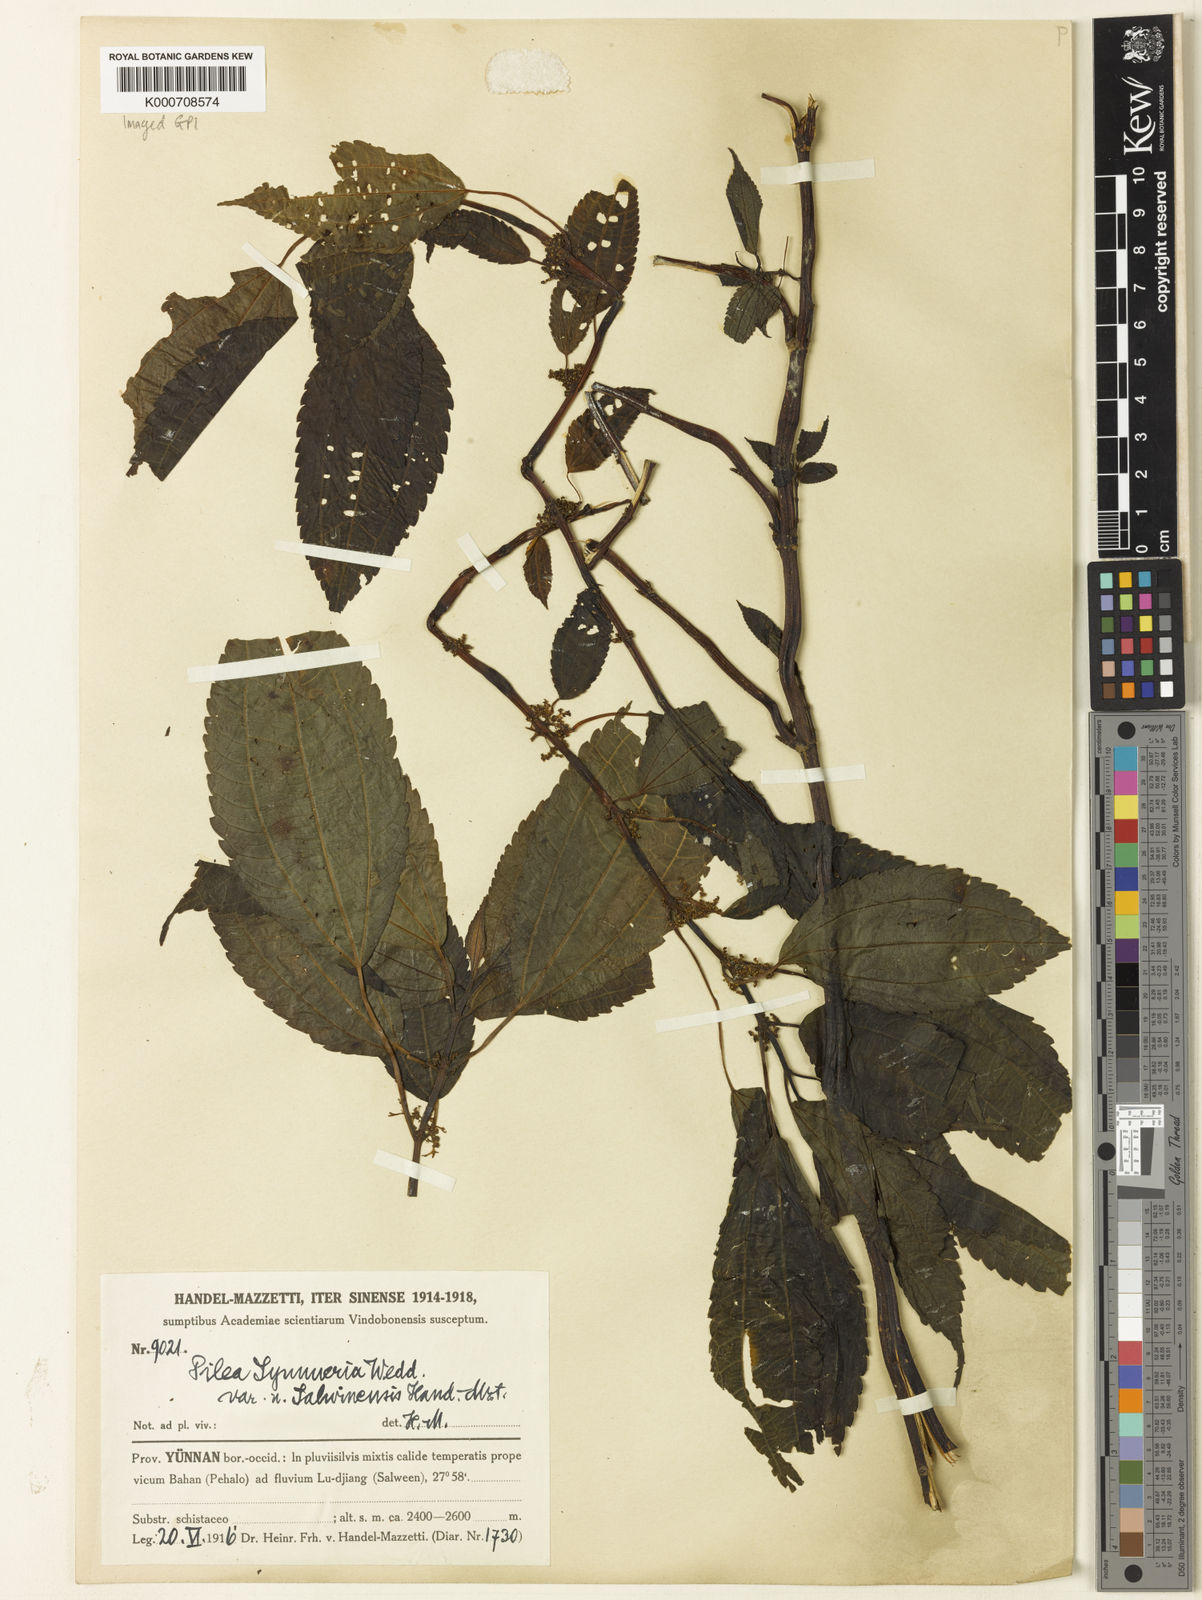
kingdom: Plantae
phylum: Tracheophyta
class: Magnoliopsida
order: Rosales
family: Urticaceae
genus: Pilea
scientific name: Pilea symmeria
